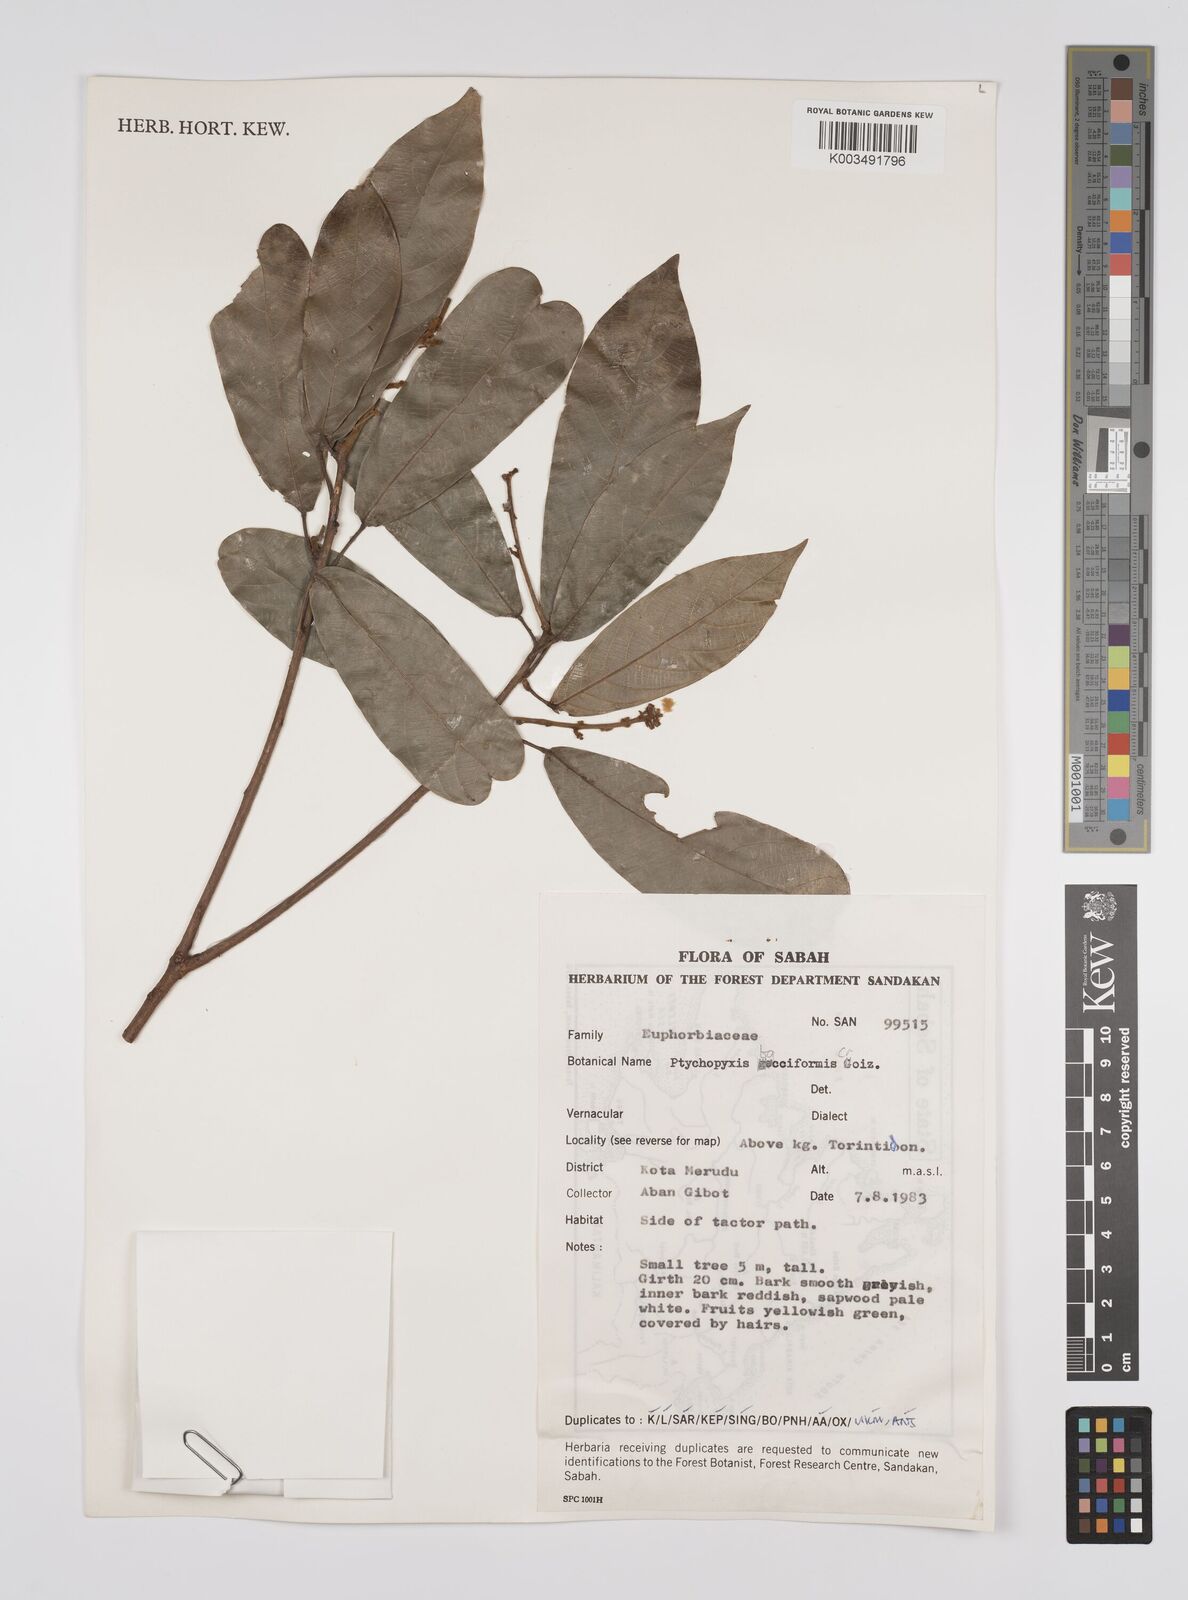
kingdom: Plantae
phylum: Tracheophyta
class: Magnoliopsida
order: Malpighiales
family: Euphorbiaceae
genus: Ptychopyxis
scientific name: Ptychopyxis bacciformis
